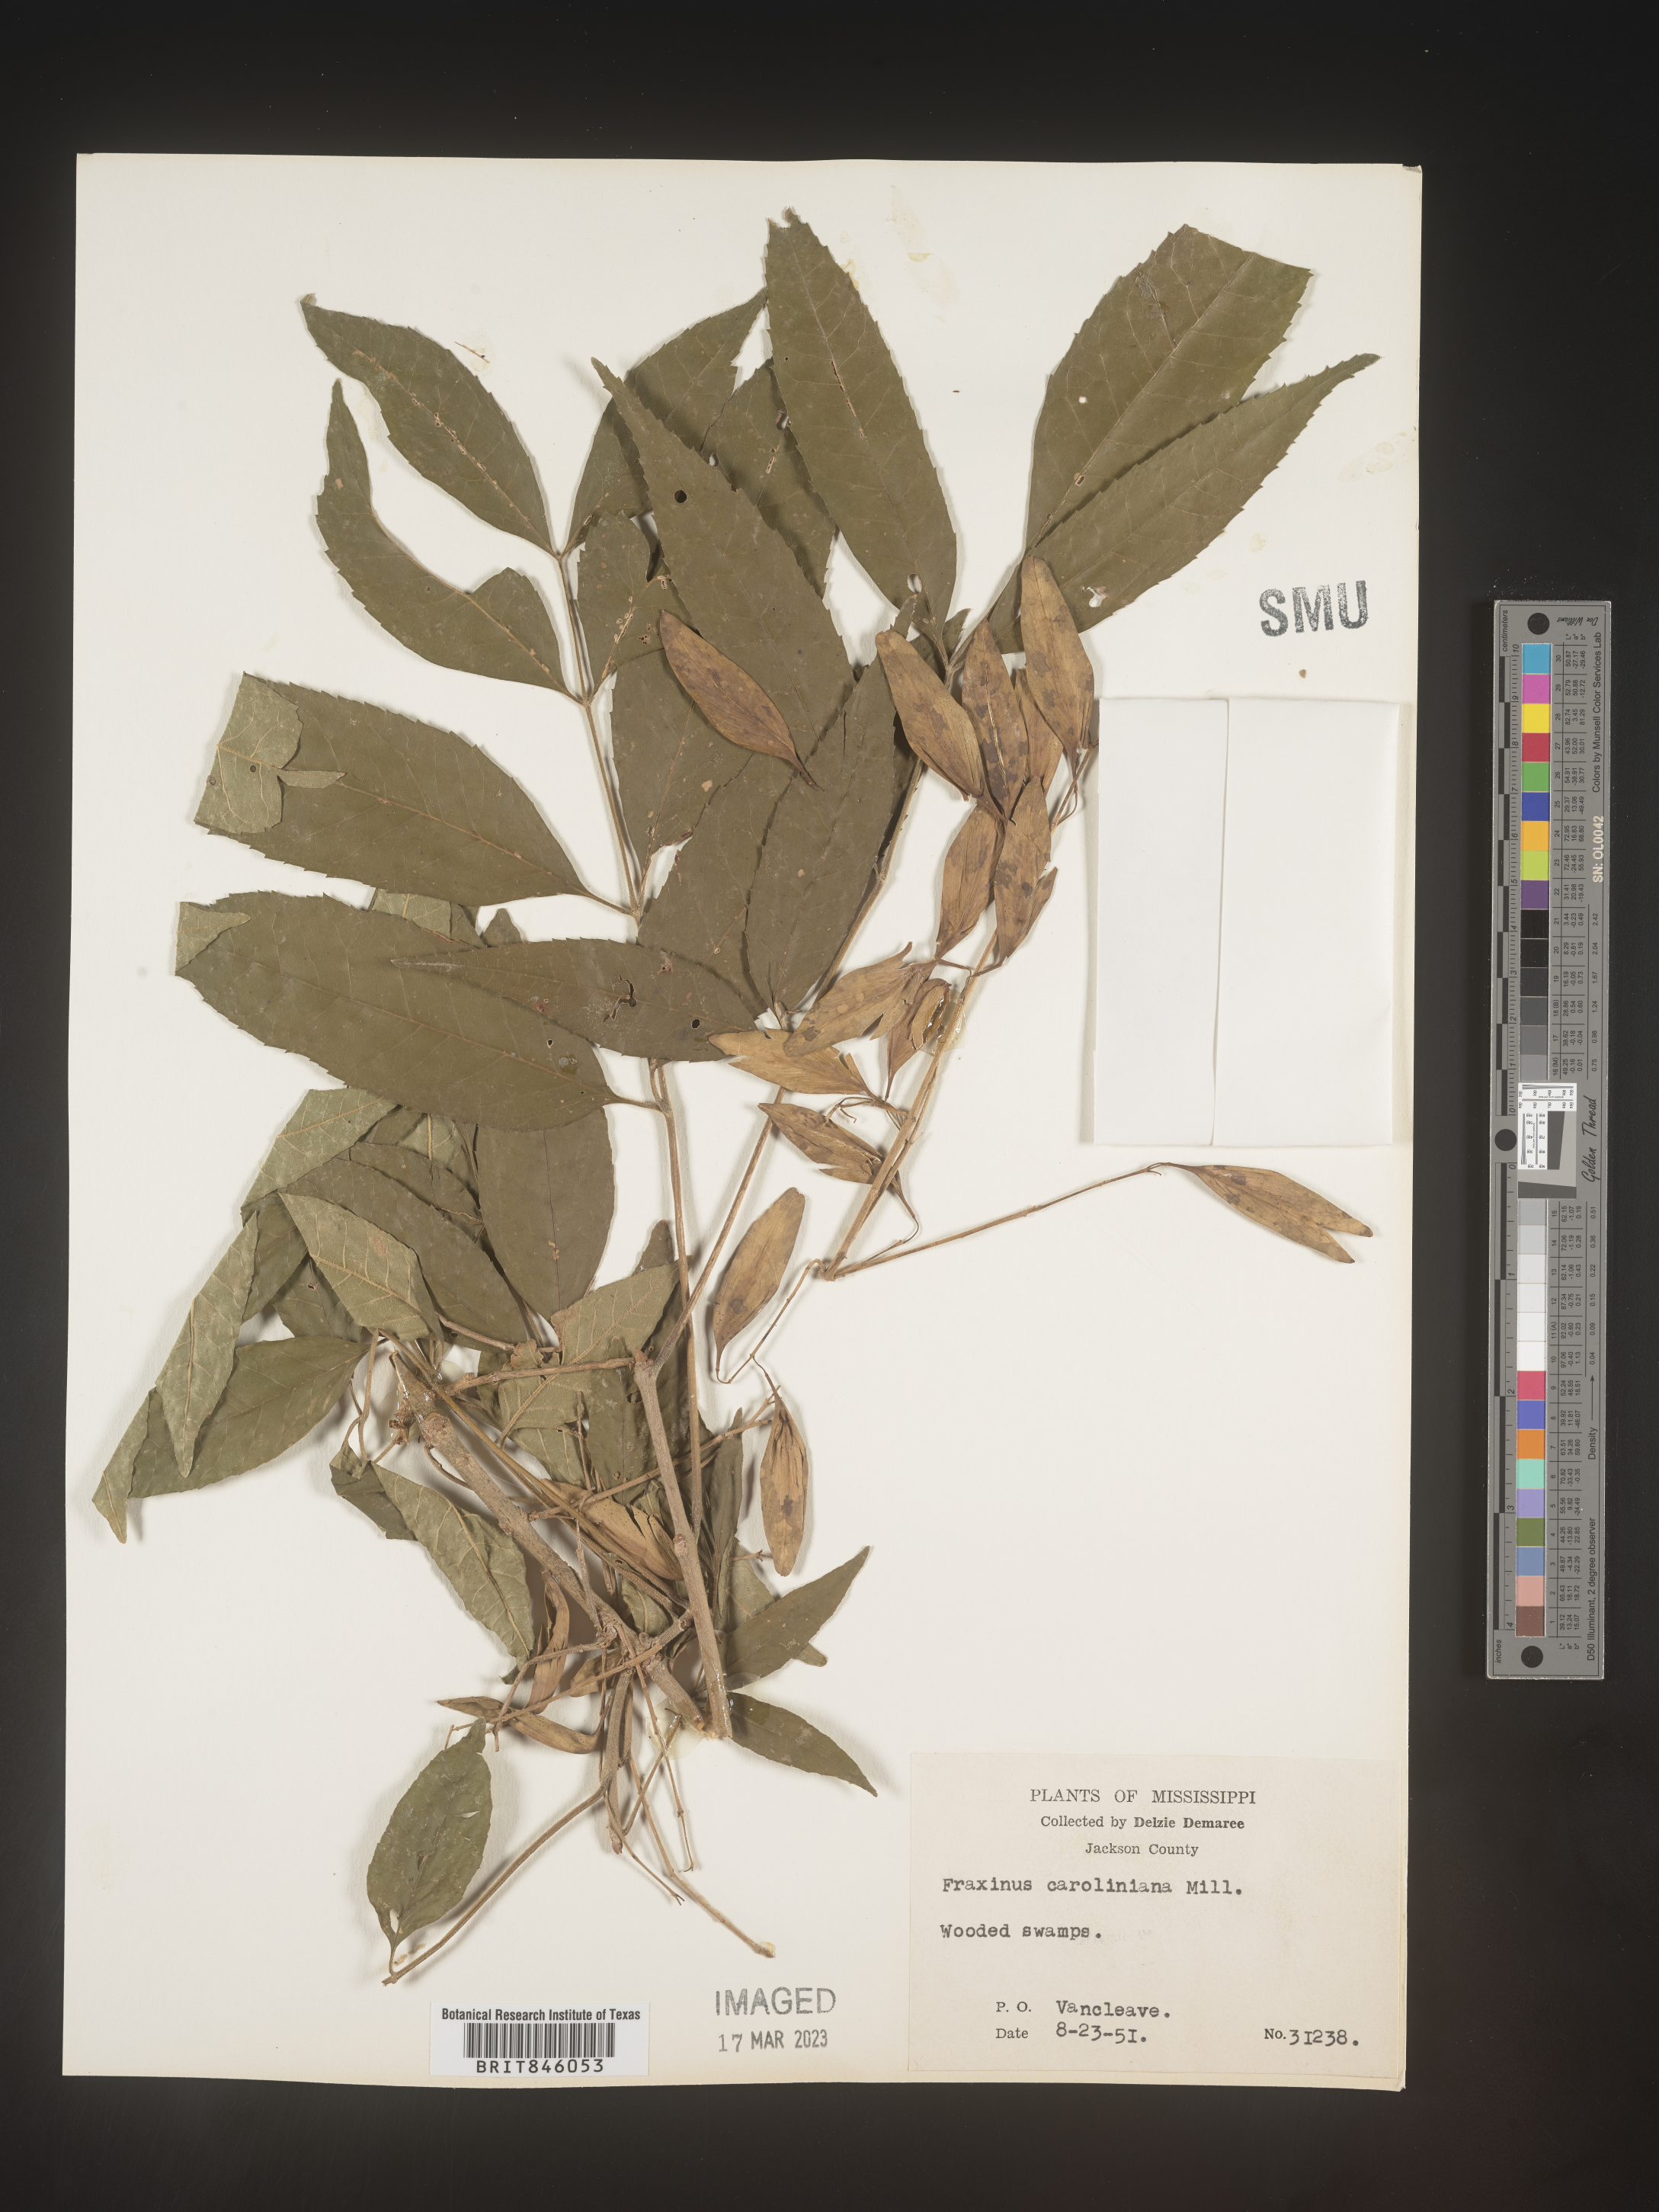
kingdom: Plantae
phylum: Tracheophyta
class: Magnoliopsida
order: Lamiales
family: Oleaceae
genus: Fraxinus
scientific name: Fraxinus caroliniana
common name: Carolina ash
